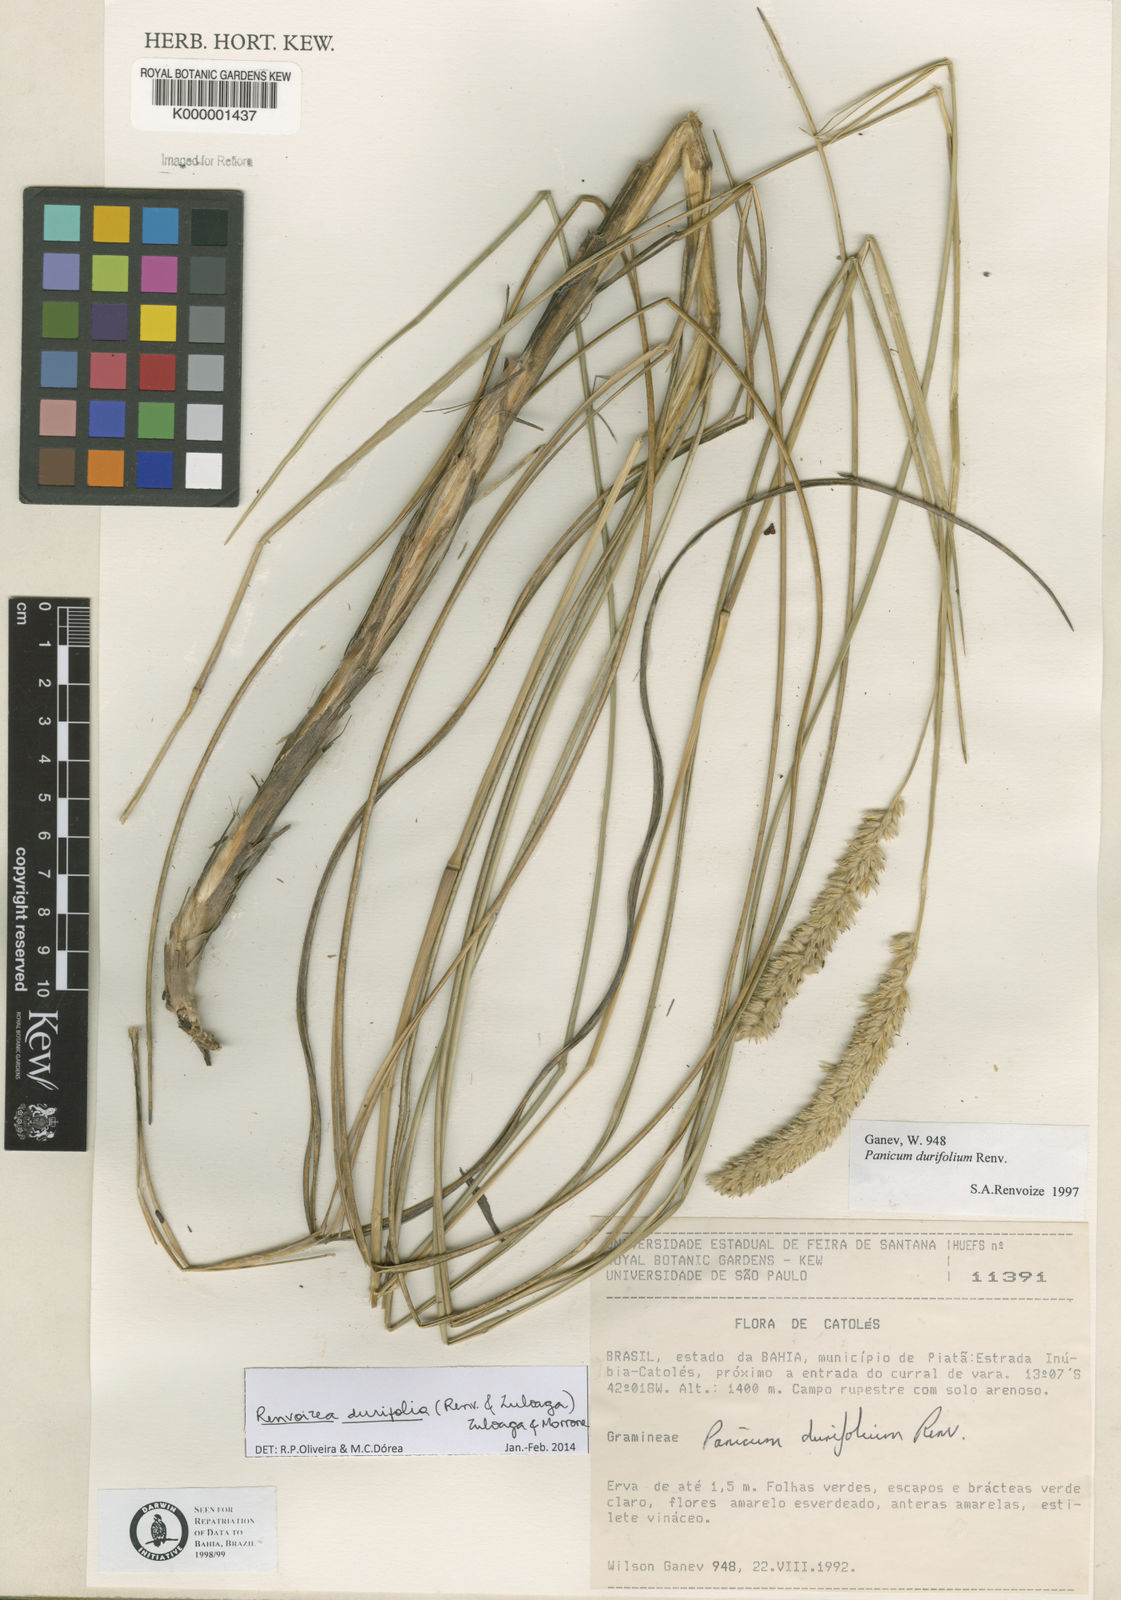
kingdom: Plantae
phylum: Tracheophyta
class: Liliopsida
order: Poales
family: Poaceae
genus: Renvoizea
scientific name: Renvoizea durifolia
